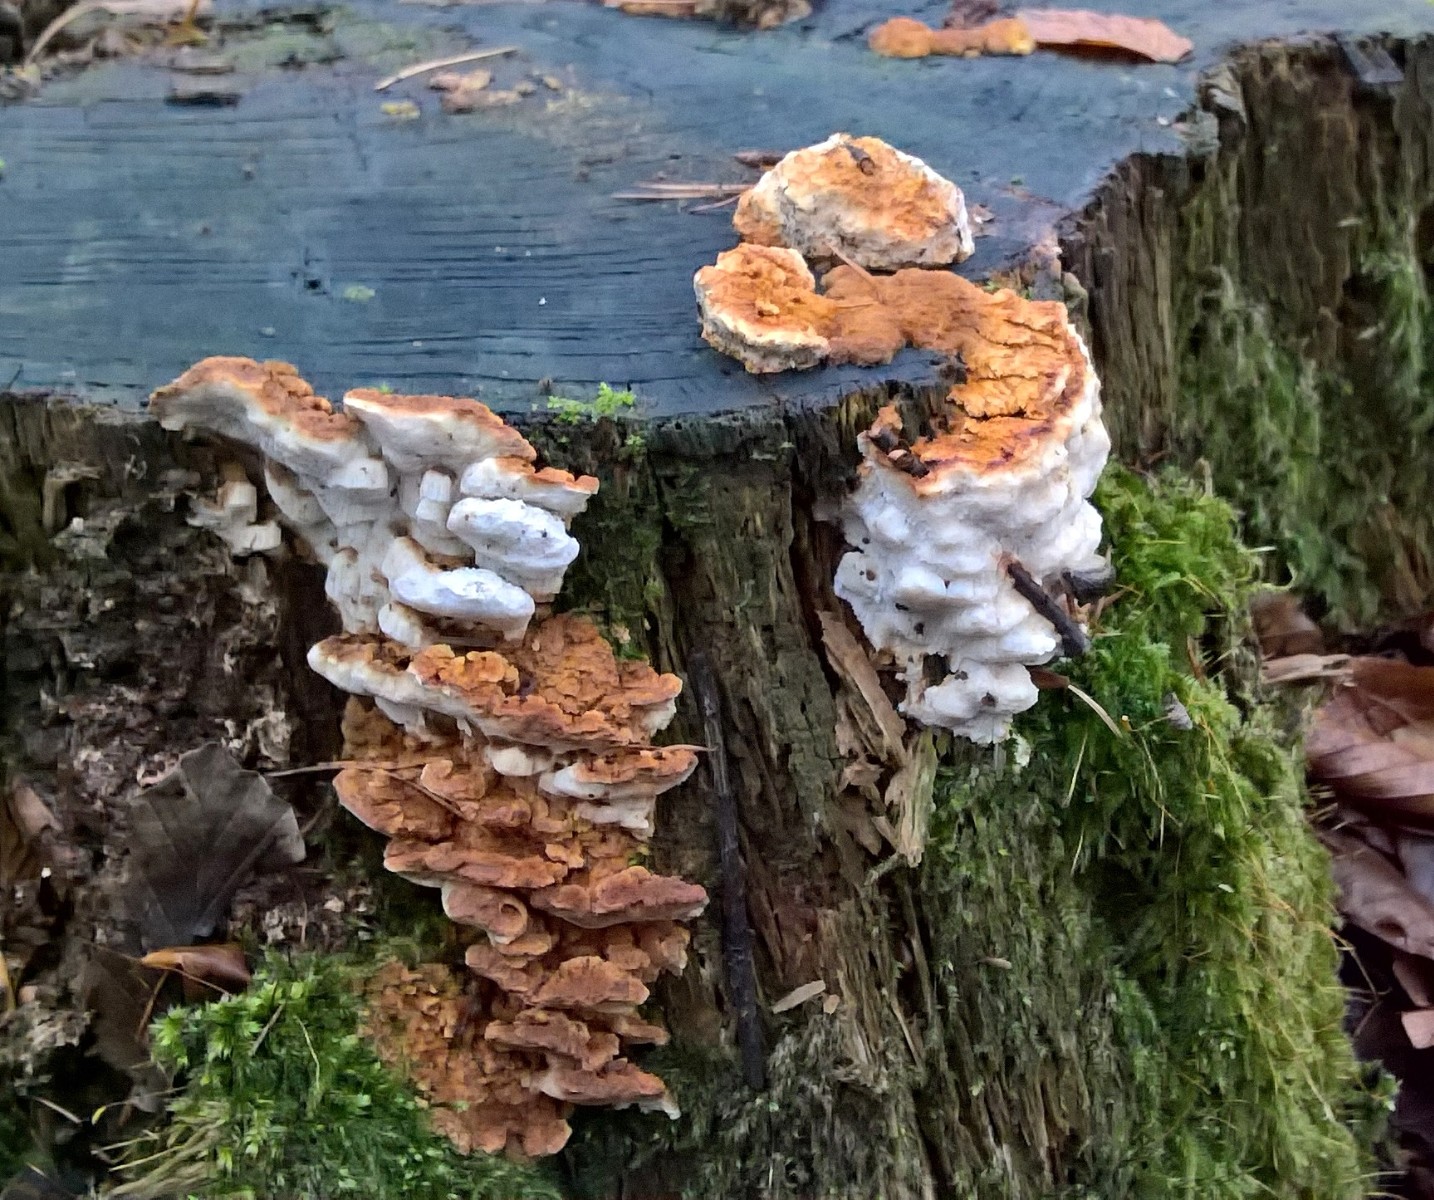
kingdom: Fungi
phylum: Basidiomycota
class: Agaricomycetes
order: Polyporales
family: Fomitopsidaceae
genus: Neoantrodia
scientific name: Neoantrodia serialis
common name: række-sejporesvamp
